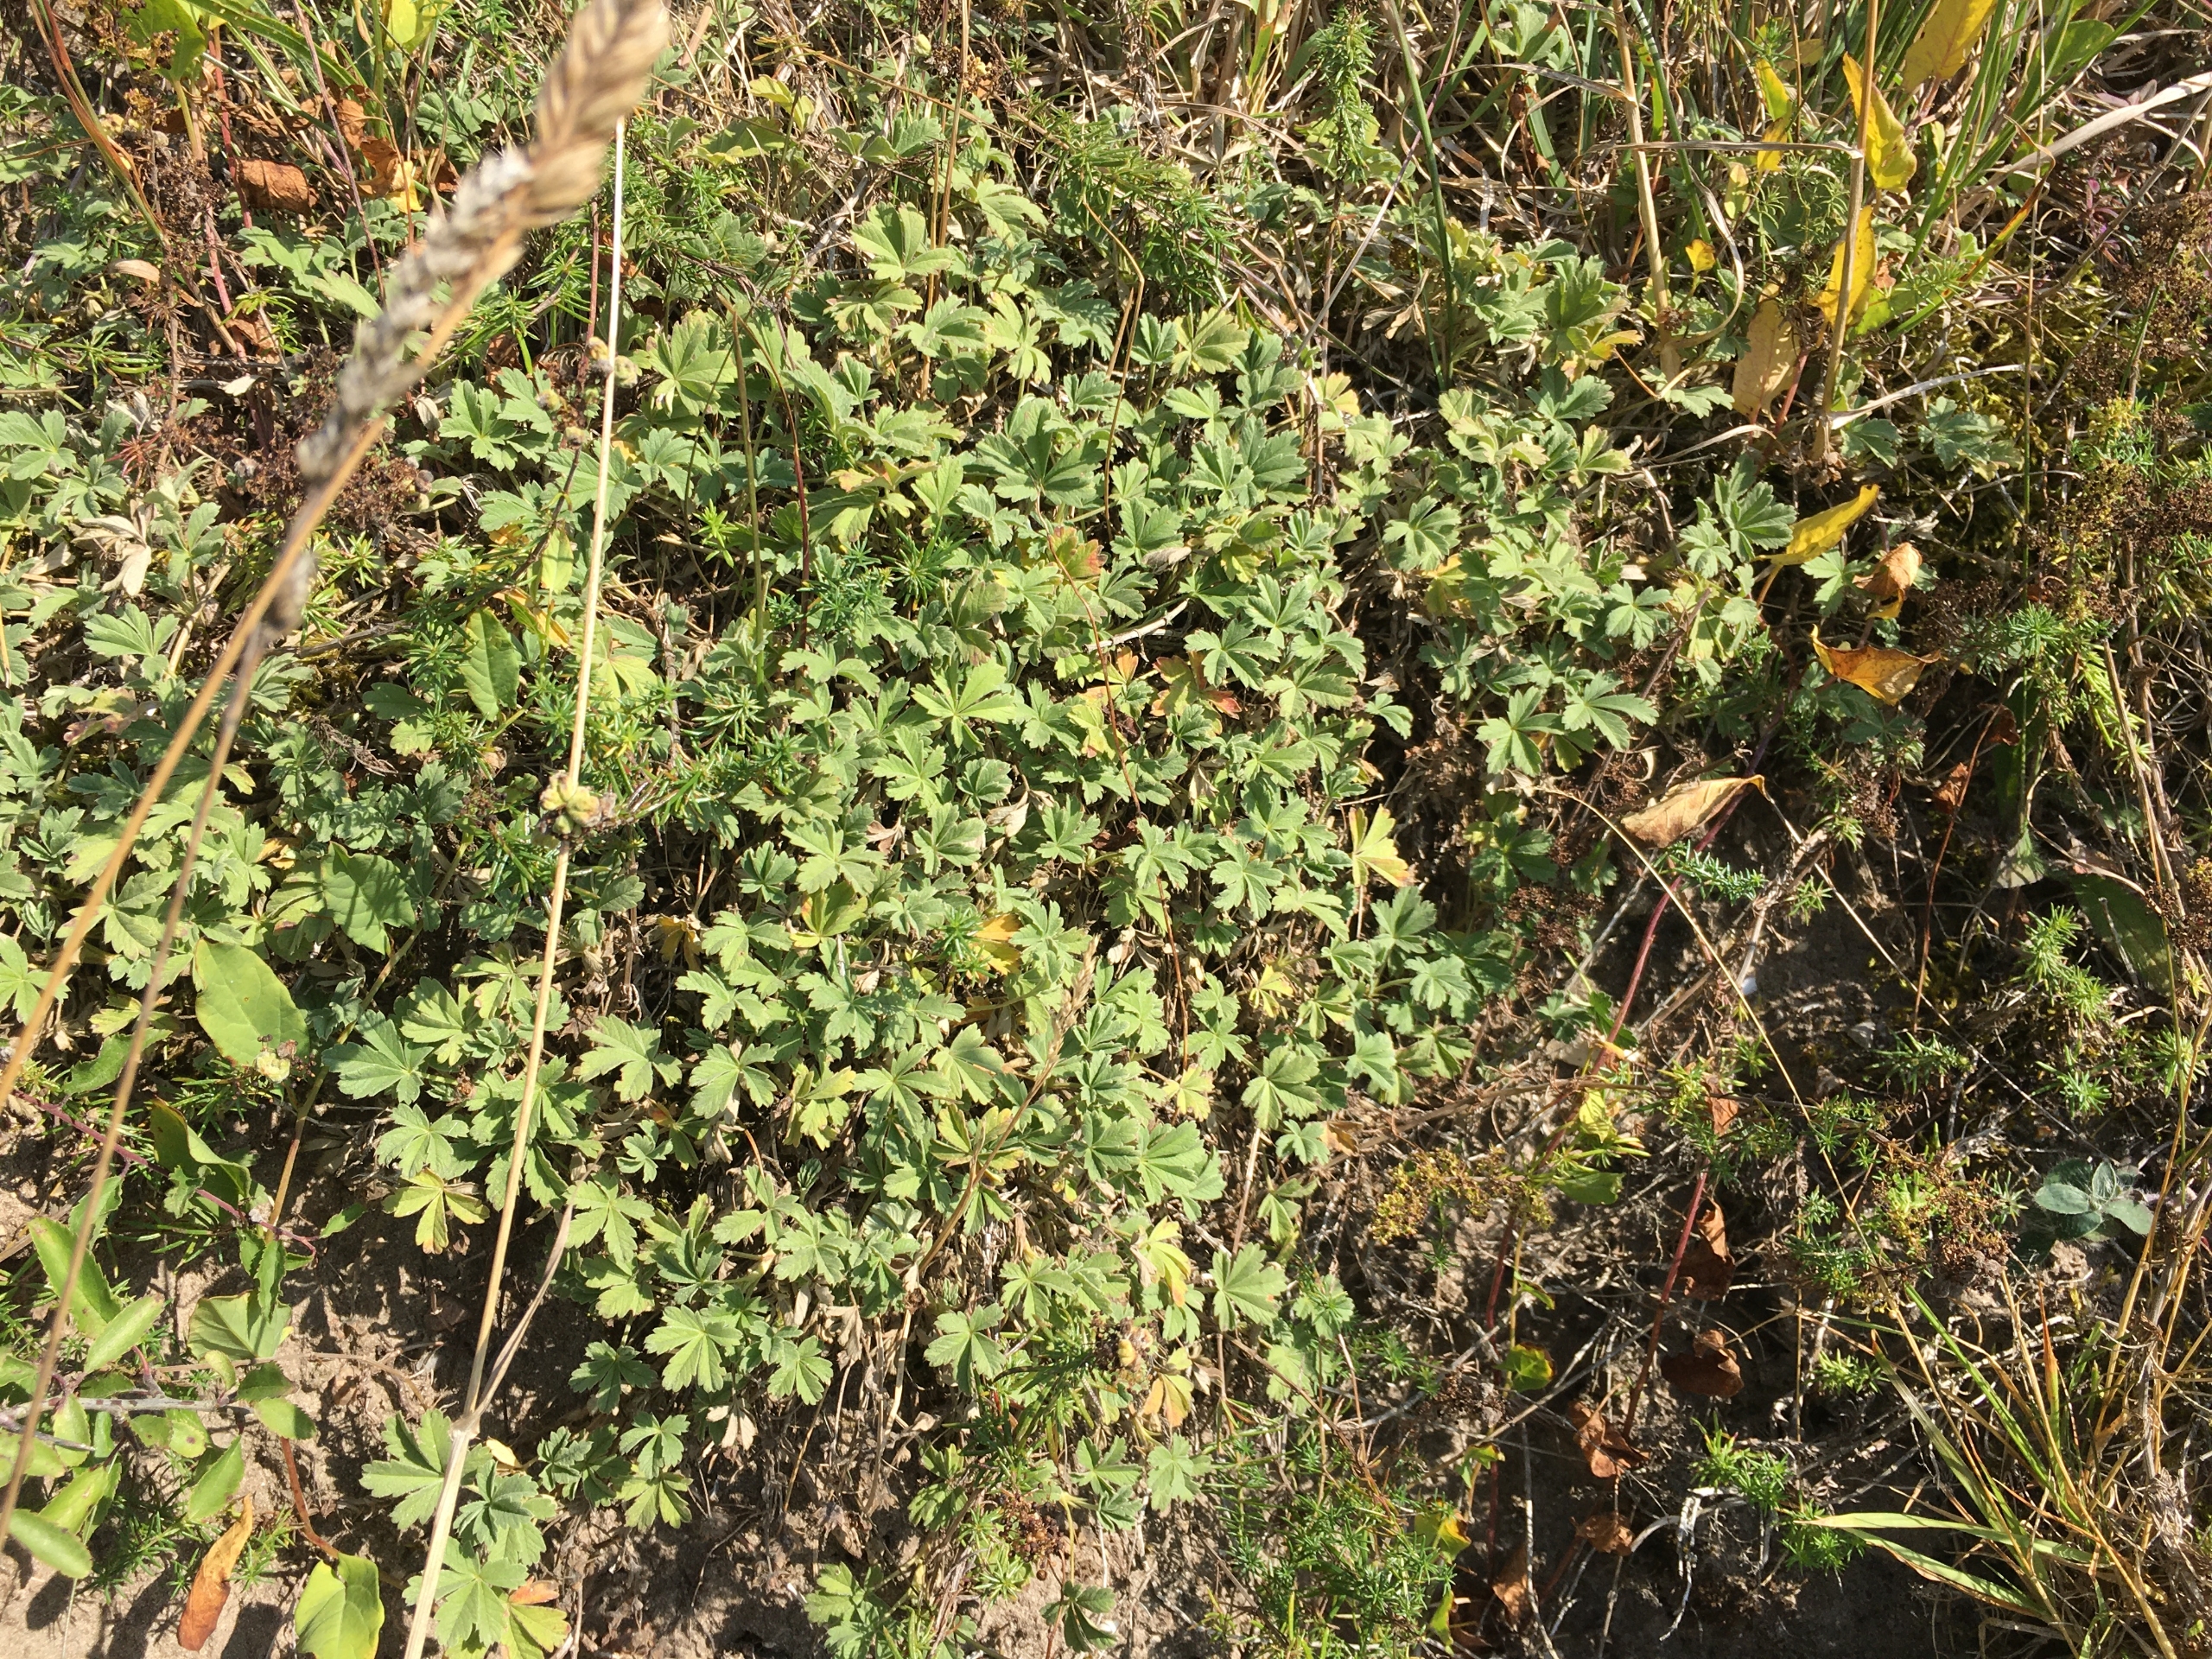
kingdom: Plantae
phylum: Tracheophyta
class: Magnoliopsida
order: Rosales
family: Rosaceae
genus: Potentilla
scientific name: Potentilla subarenaria
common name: Grå vår-potentil
